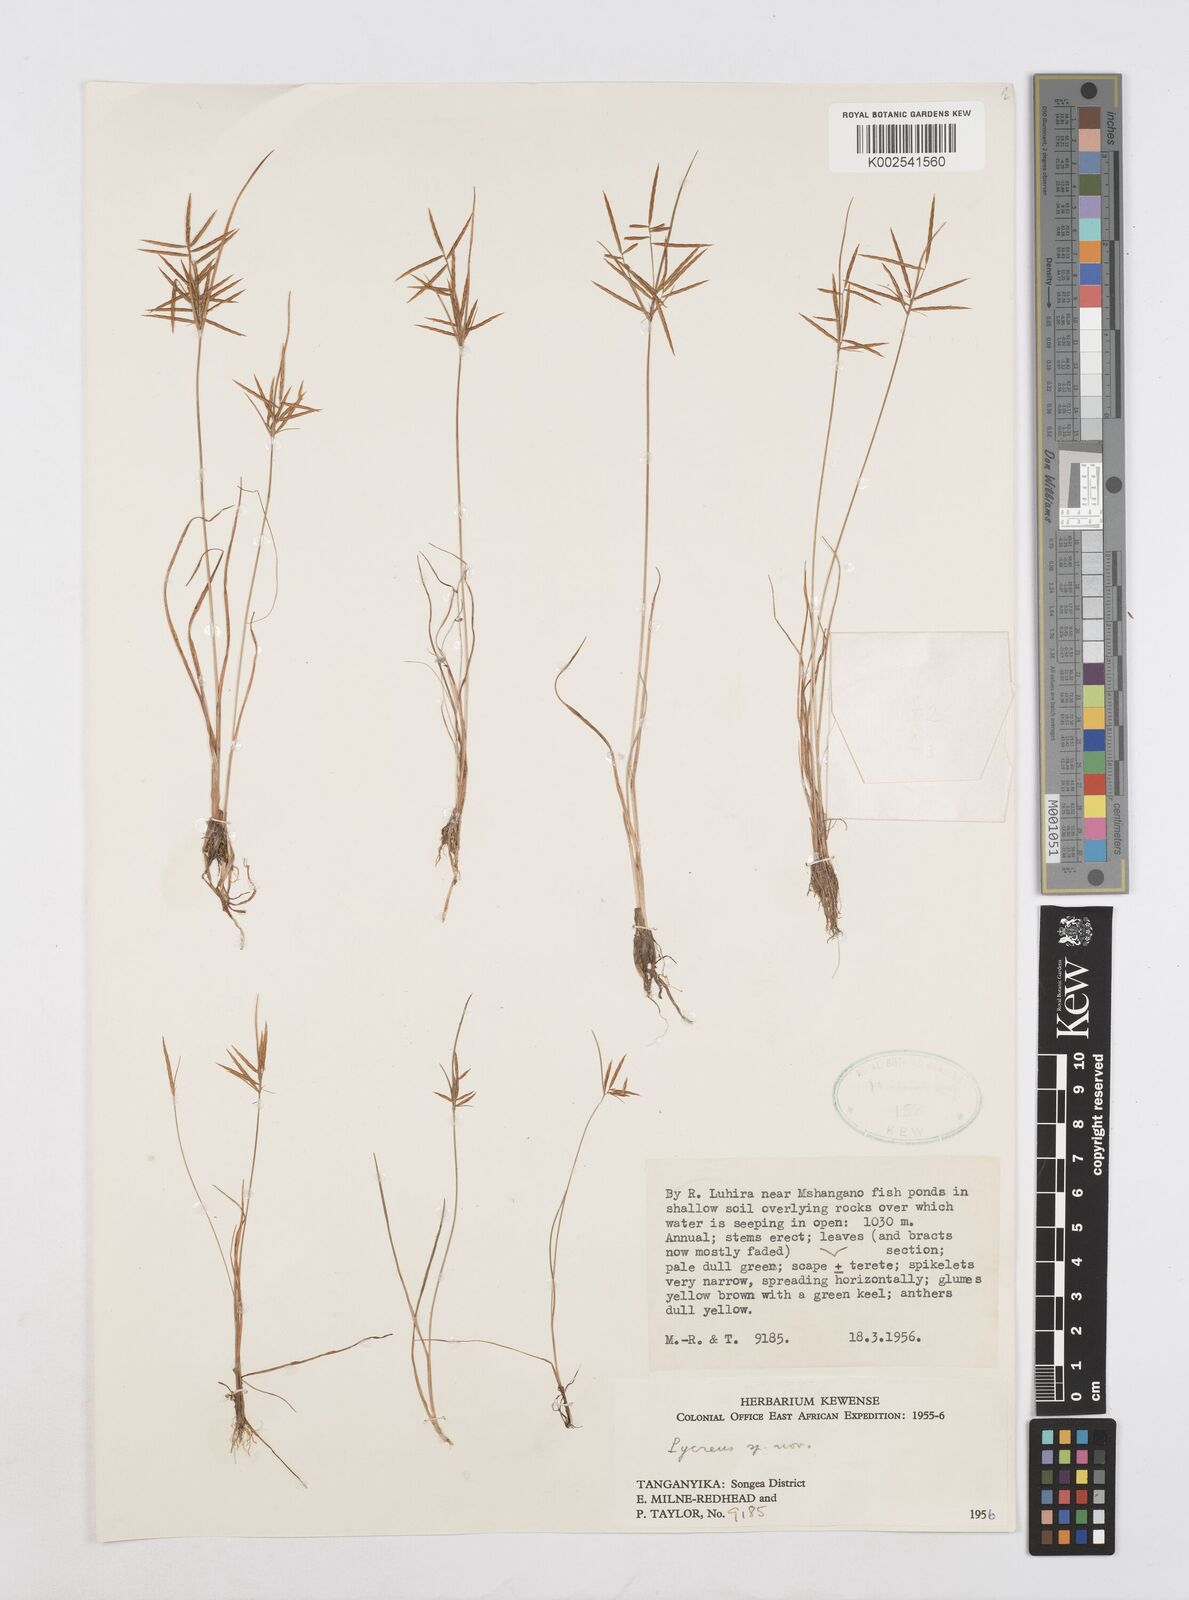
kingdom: Plantae
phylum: Tracheophyta
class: Liliopsida
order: Poales
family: Cyperaceae
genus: Cyperus
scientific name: Cyperus intactus
